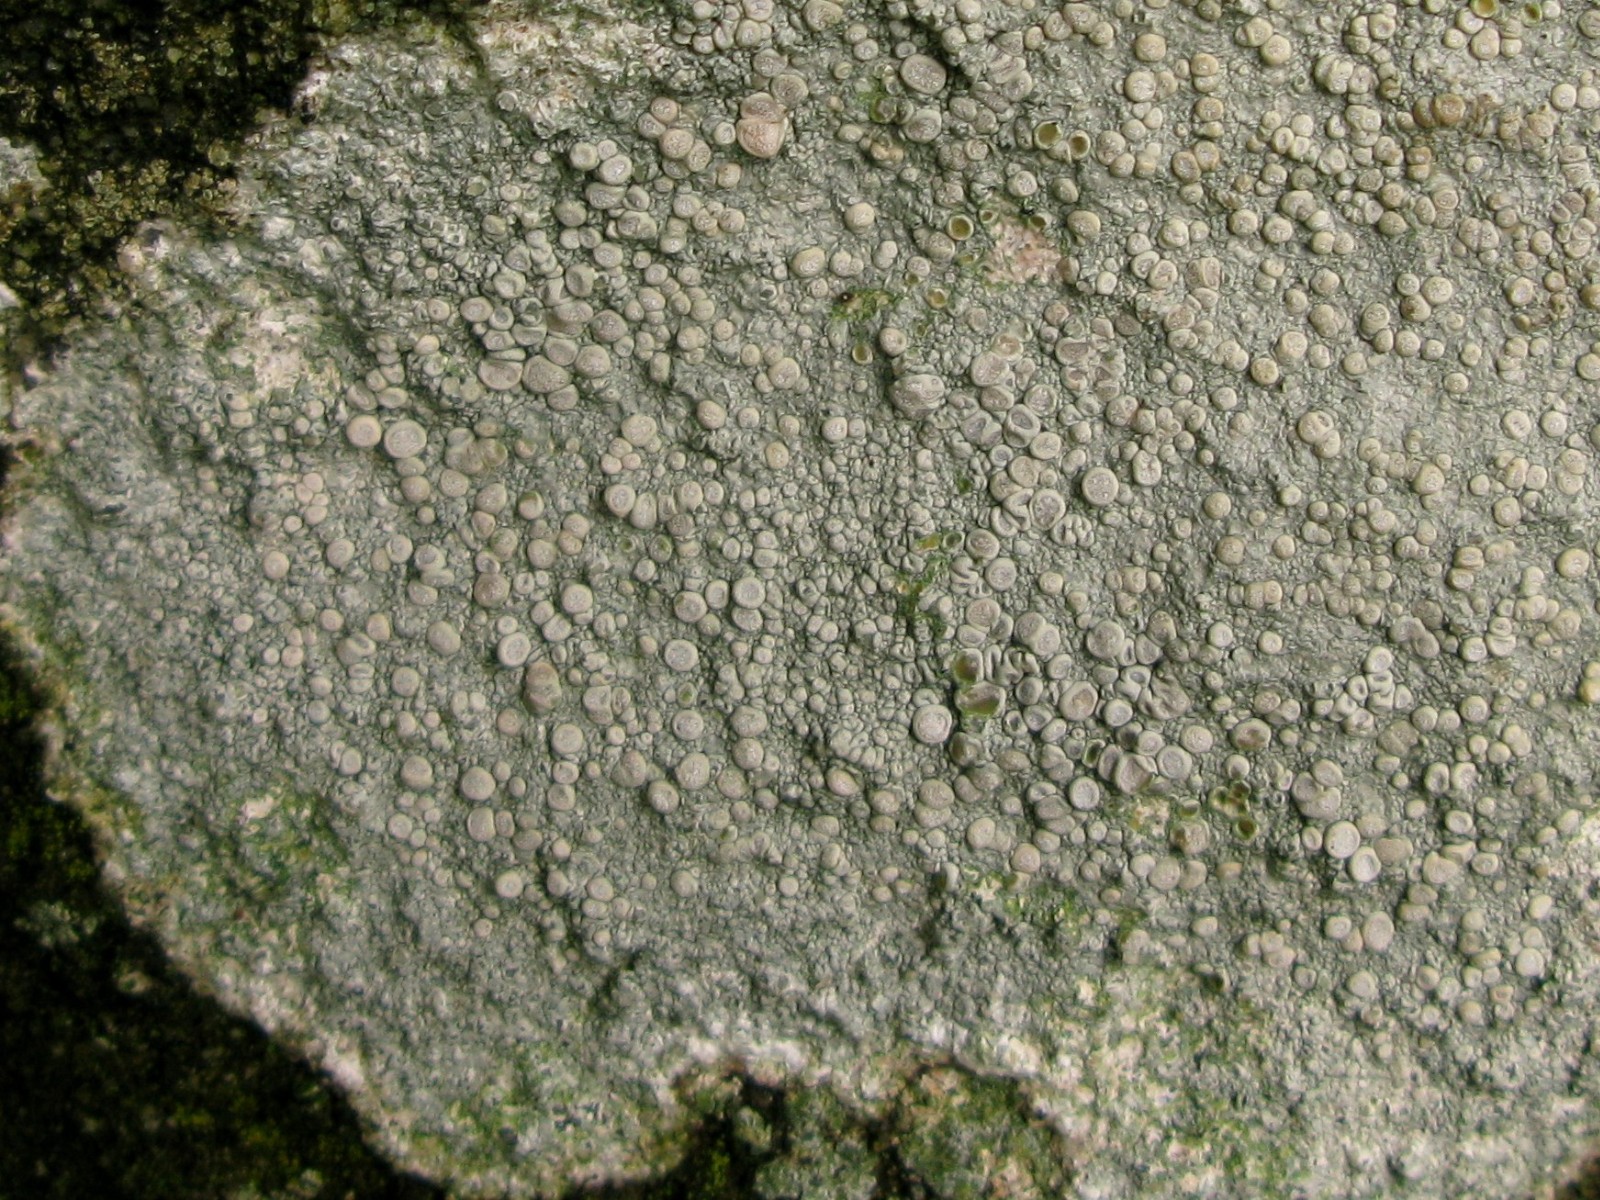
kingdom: Fungi
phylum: Ascomycota
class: Lecanoromycetes
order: Pertusariales
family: Ochrolechiaceae
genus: Ochrolechia
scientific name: Ochrolechia parella
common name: almindelig blegskivelav
